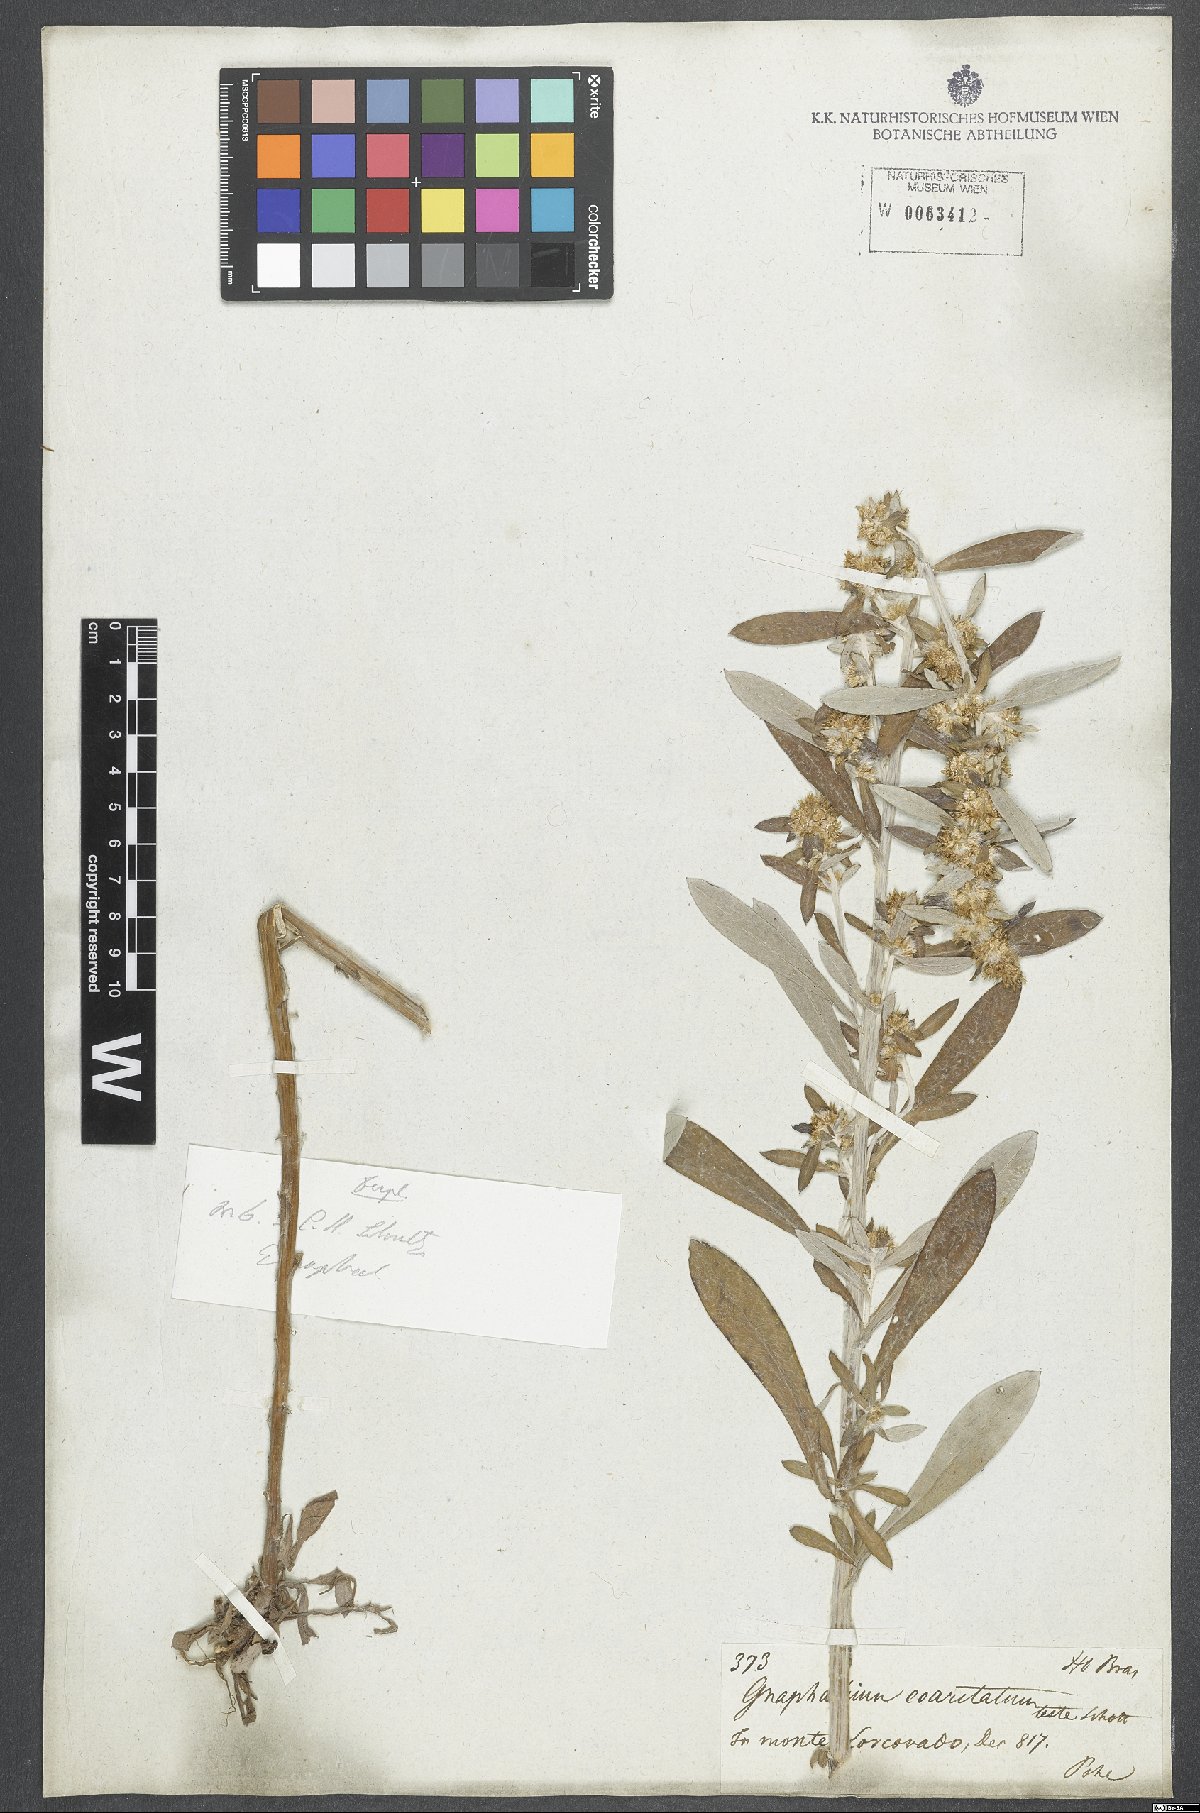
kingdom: Plantae
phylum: Tracheophyta
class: Magnoliopsida
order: Asterales
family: Asteraceae
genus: Gamochaeta
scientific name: Gamochaeta americana
